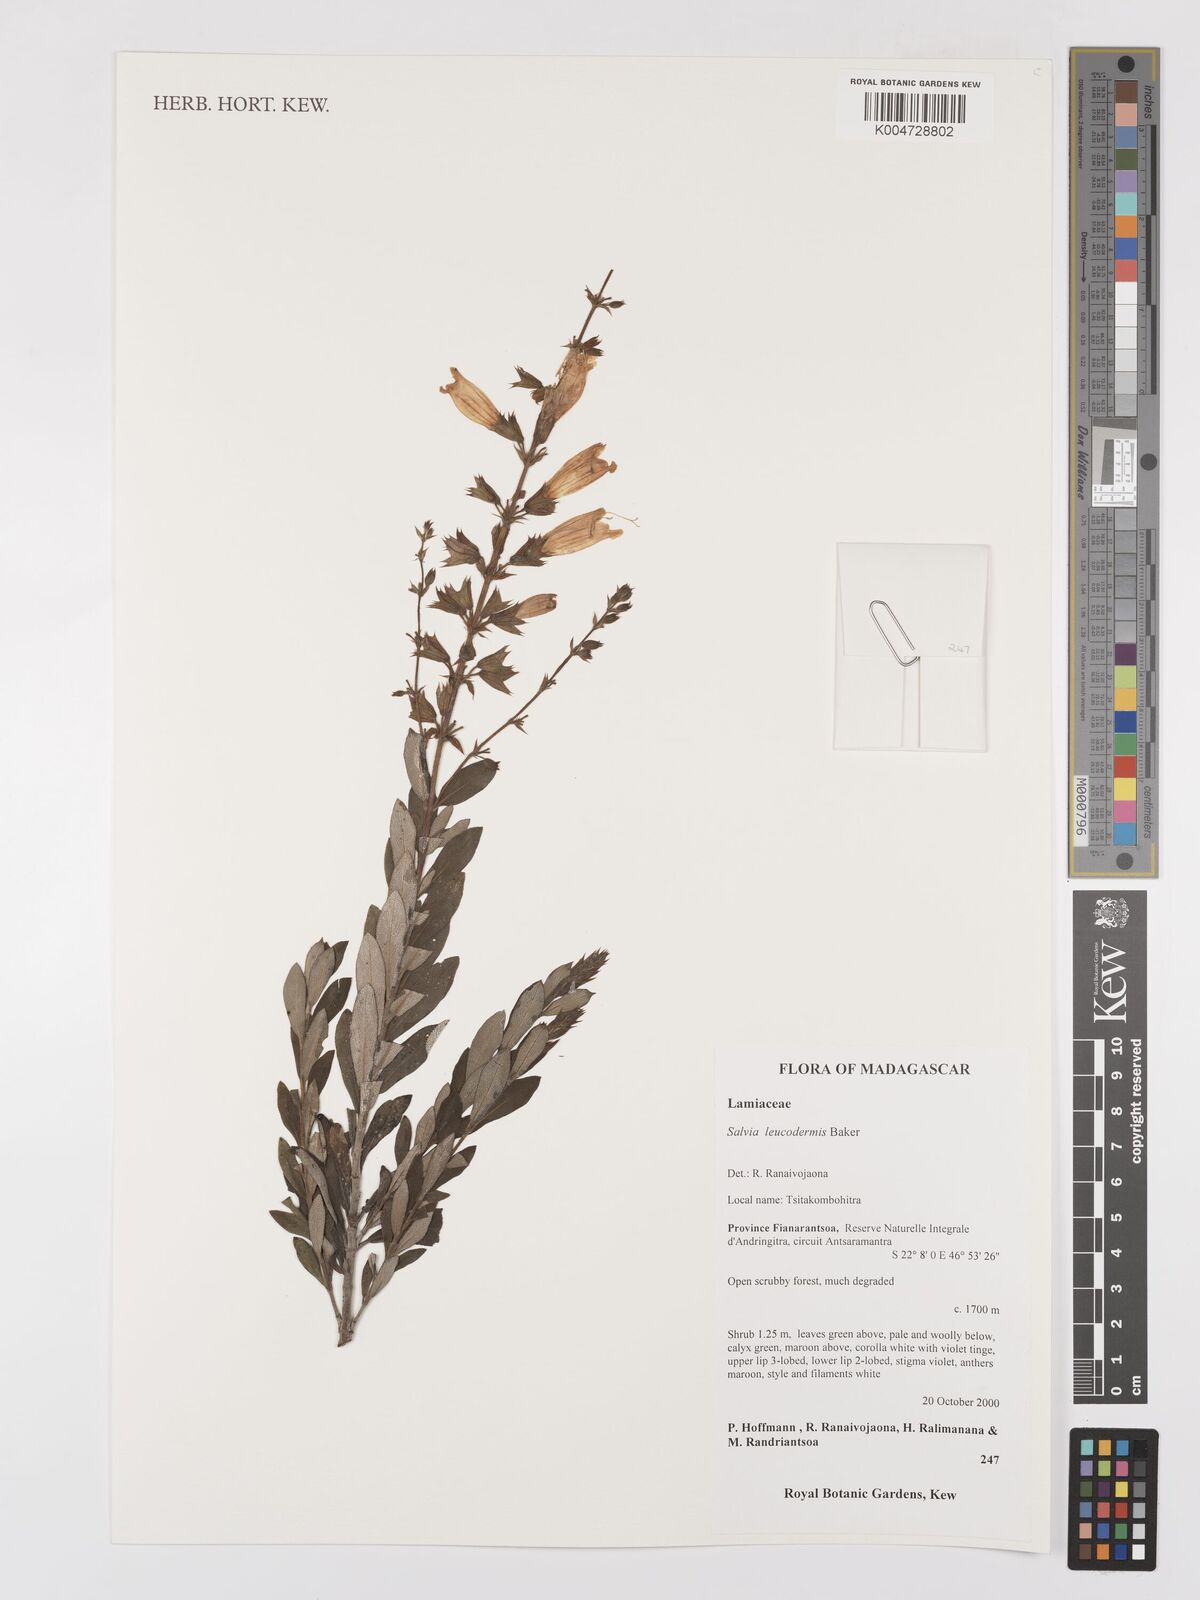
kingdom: Plantae
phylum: Tracheophyta
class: Magnoliopsida
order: Lamiales
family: Lamiaceae
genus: Salvia
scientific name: Salvia leucodermis
